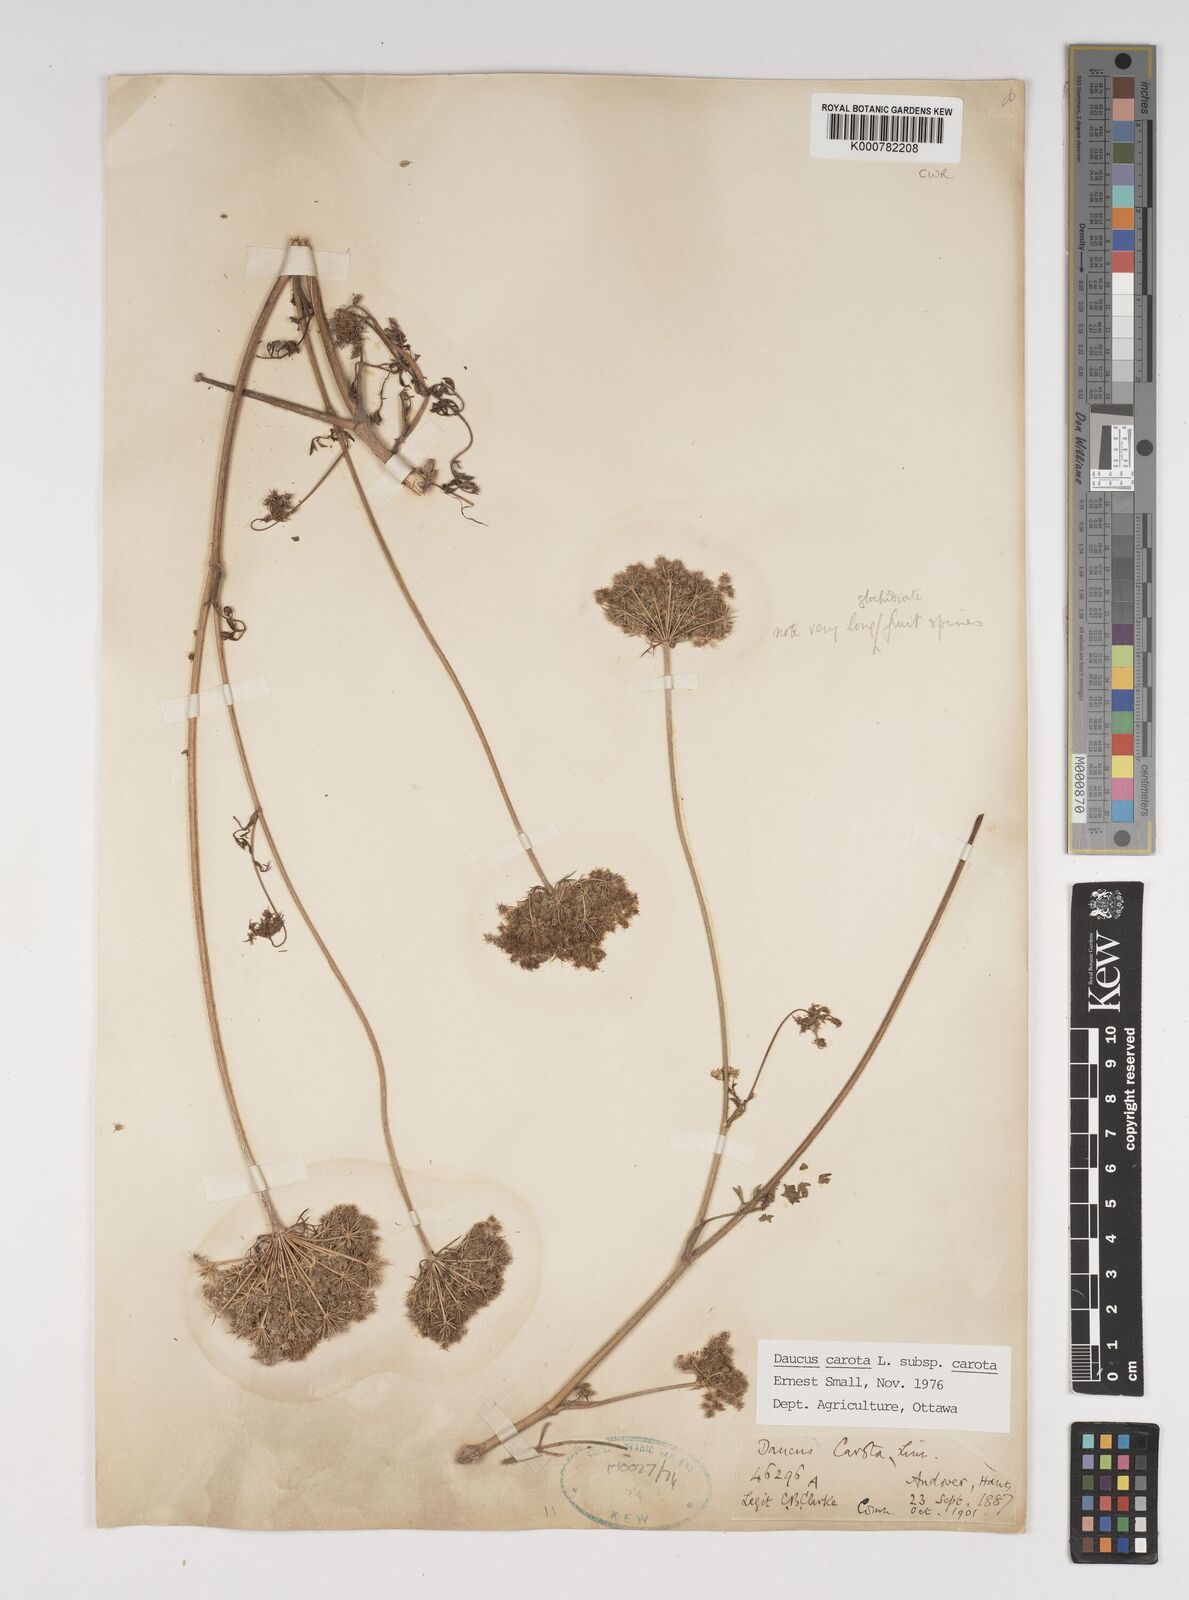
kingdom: Plantae
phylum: Tracheophyta
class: Magnoliopsida
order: Apiales
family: Apiaceae
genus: Daucus
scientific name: Daucus carota
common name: Wild carrot
